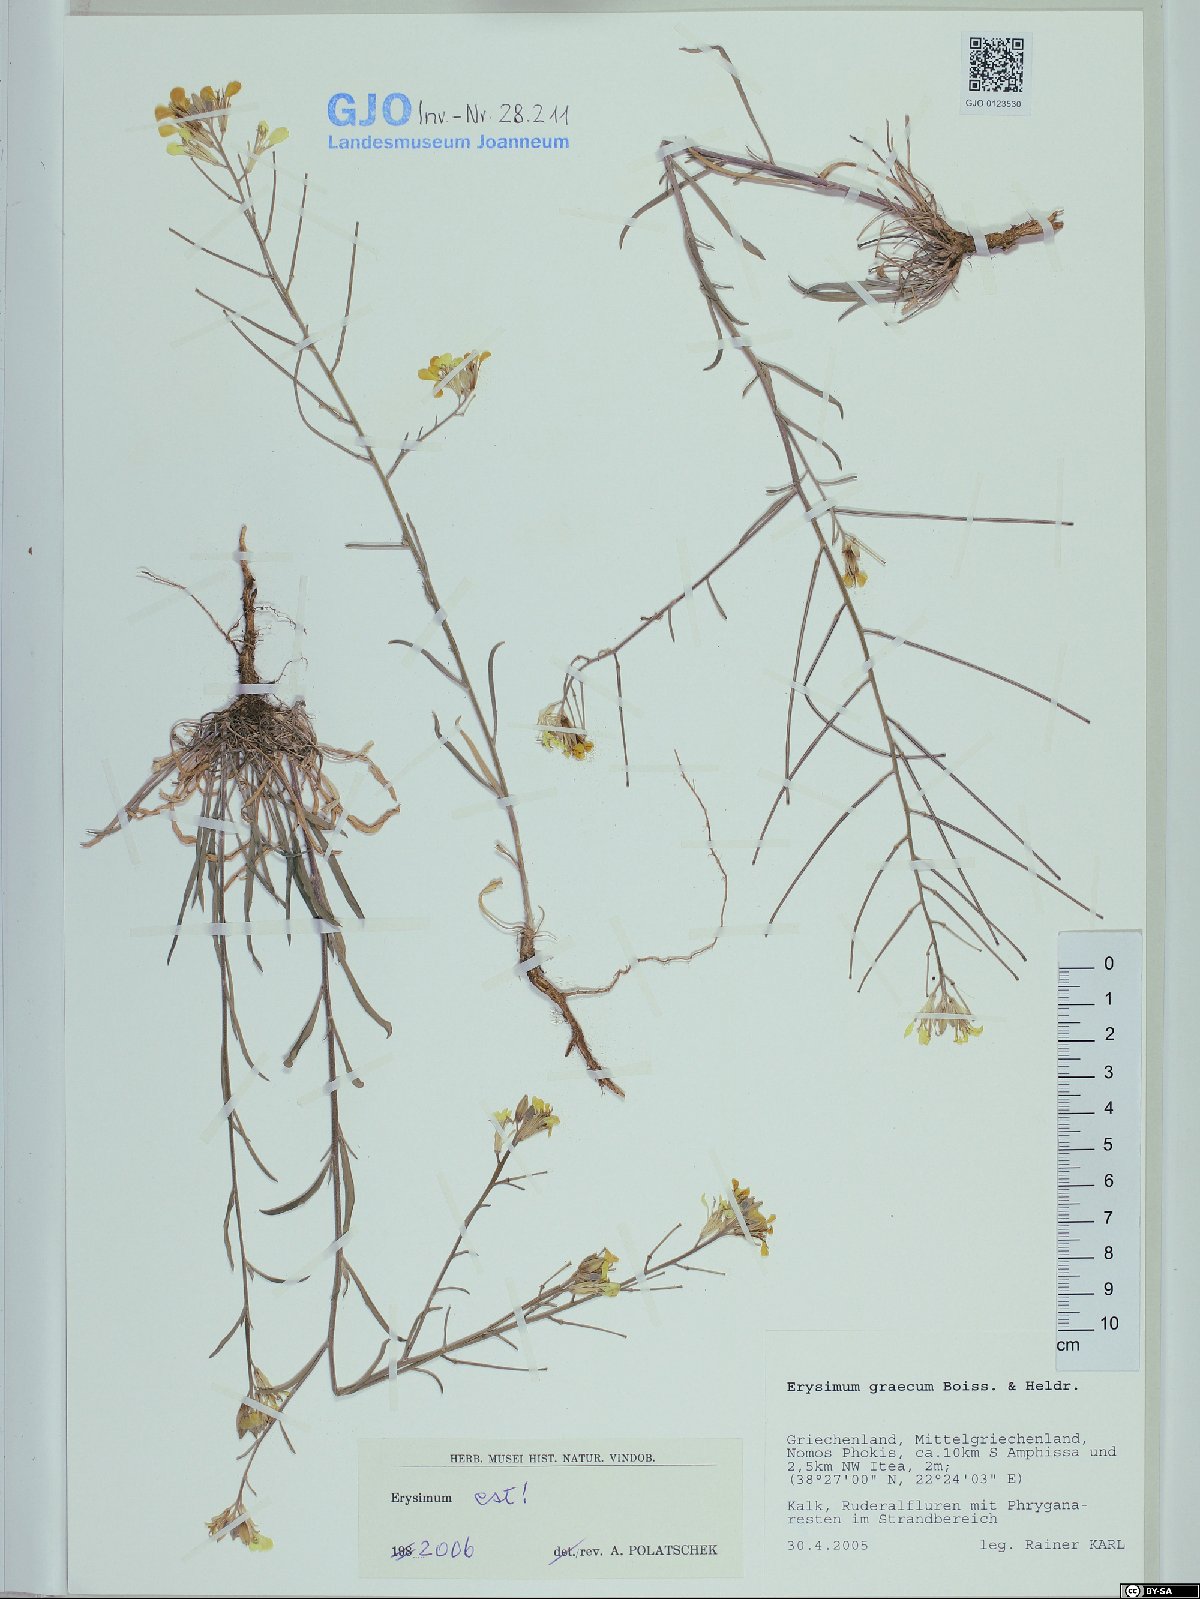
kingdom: Plantae
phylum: Tracheophyta
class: Magnoliopsida
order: Brassicales
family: Brassicaceae
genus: Erysimum
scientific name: Erysimum graecum
